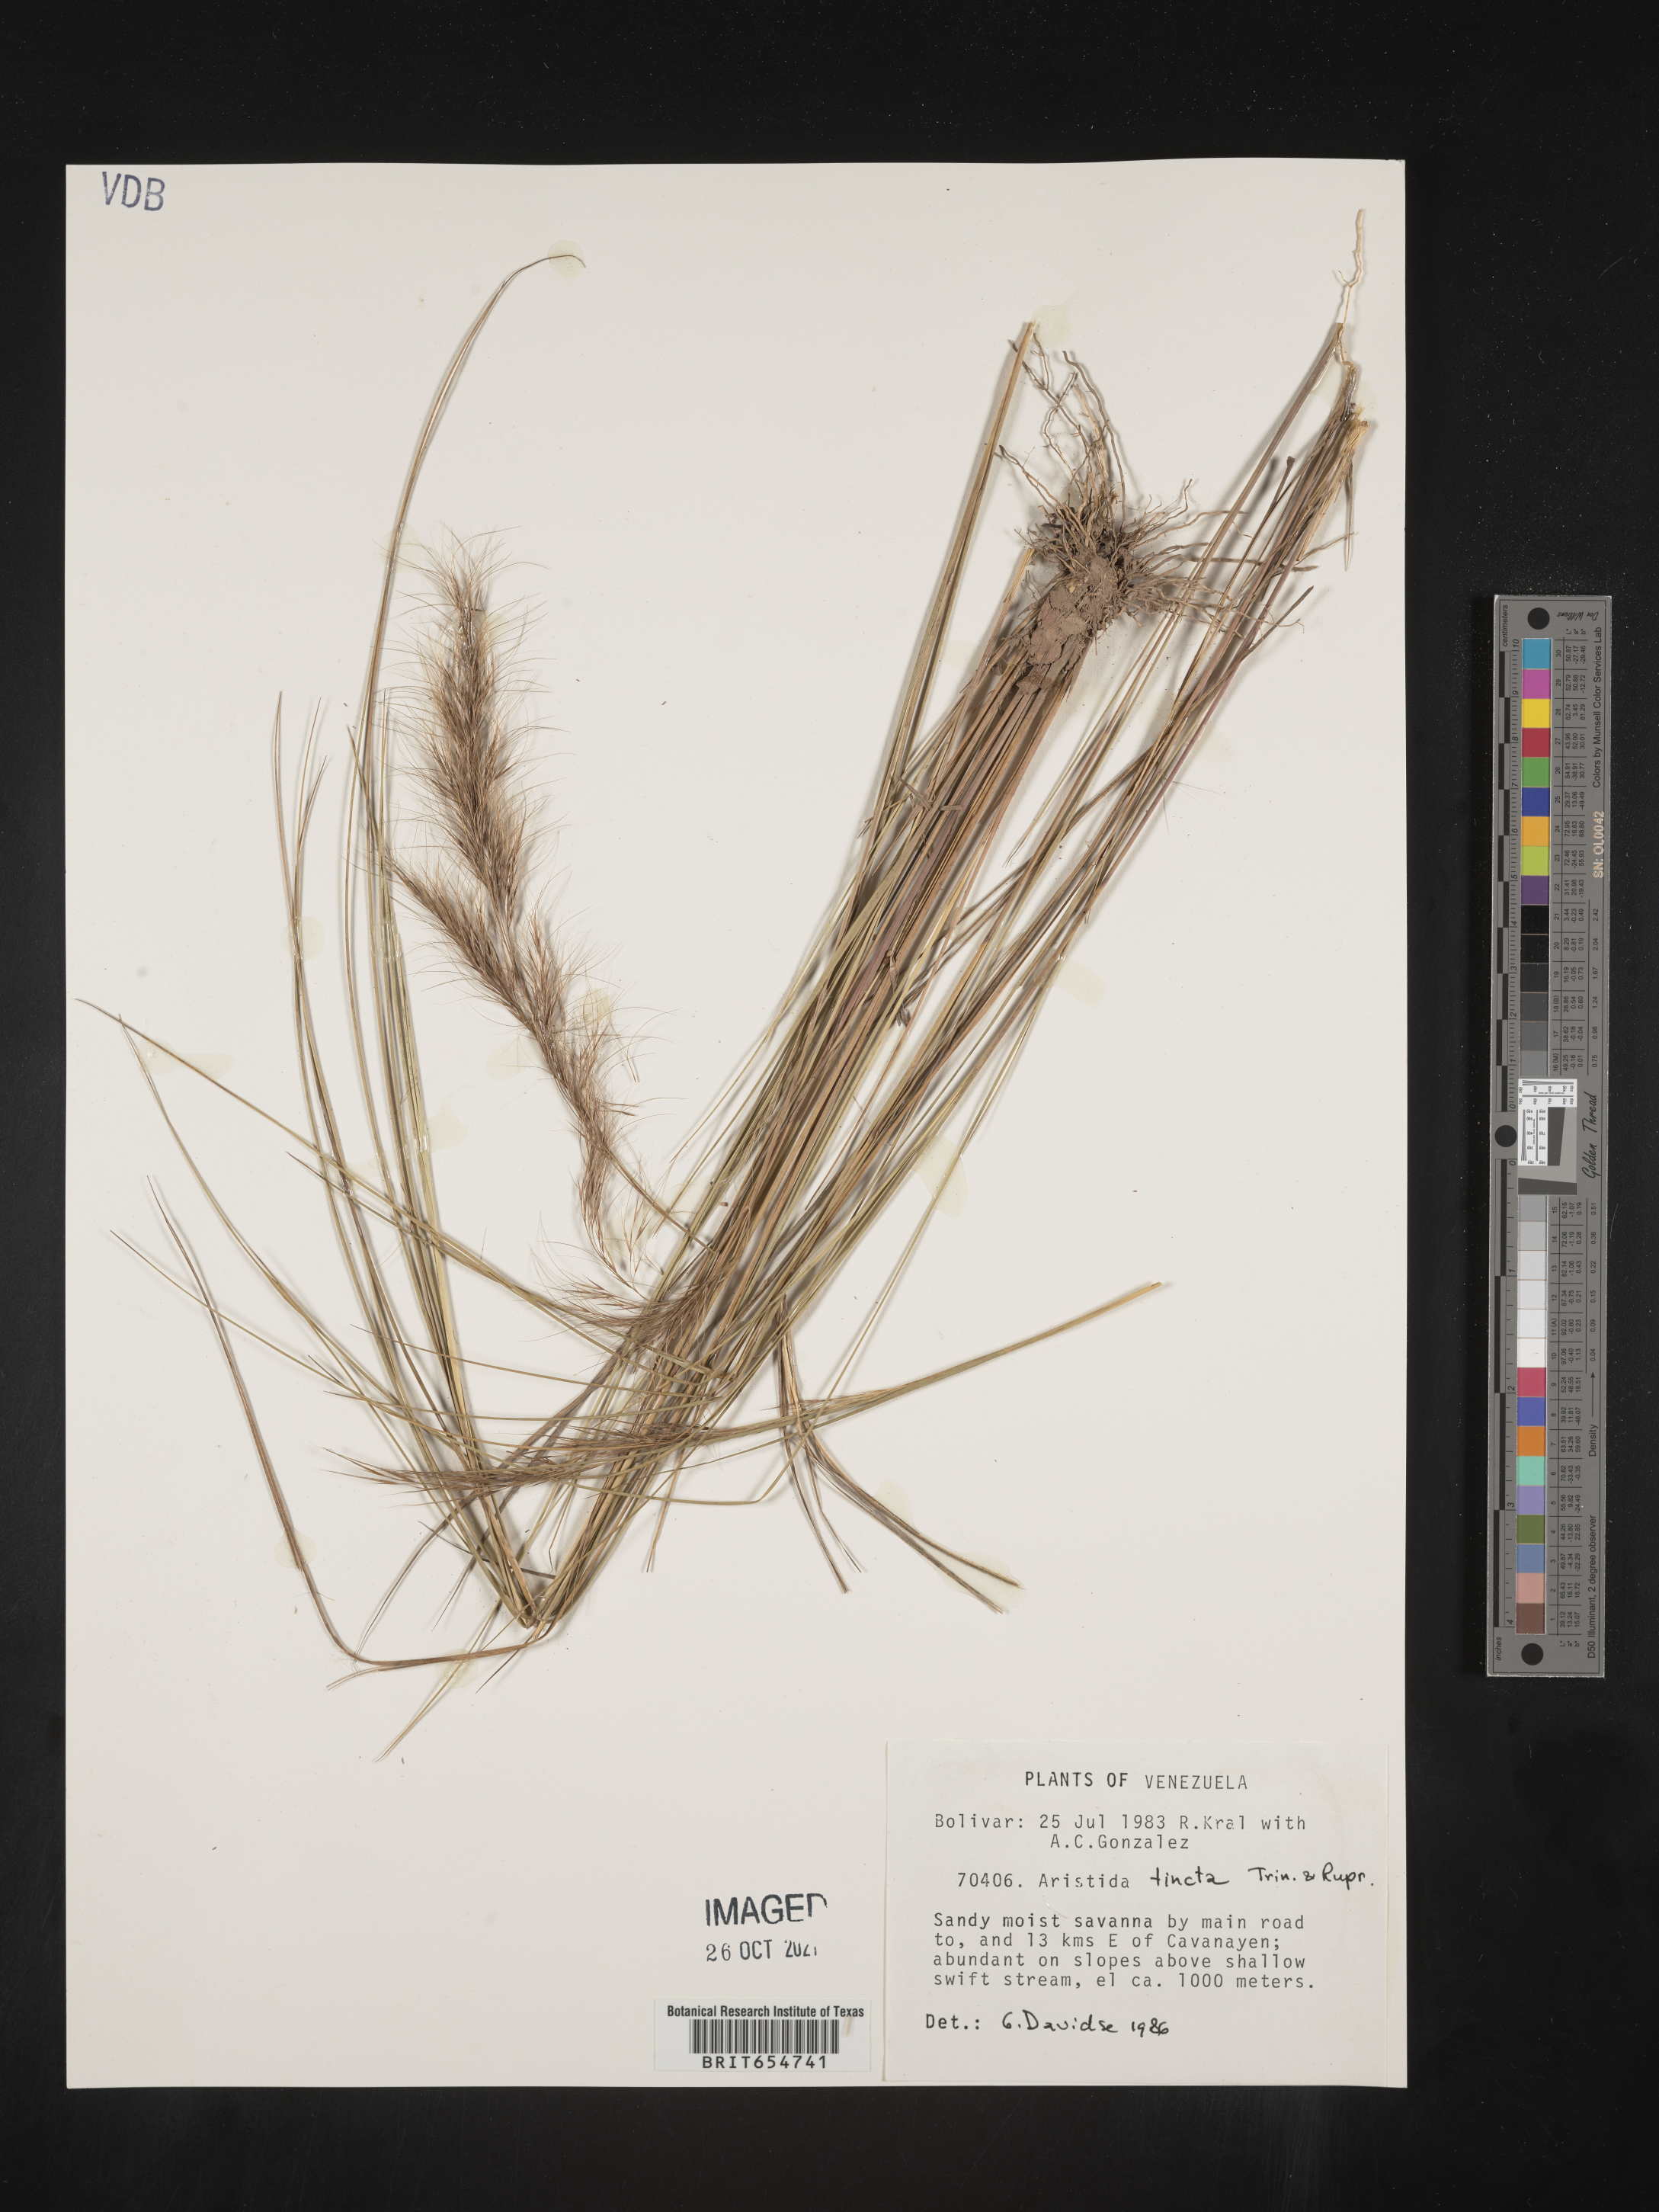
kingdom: Plantae
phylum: Tracheophyta
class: Liliopsida
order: Poales
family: Poaceae
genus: Aristida
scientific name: Aristida
